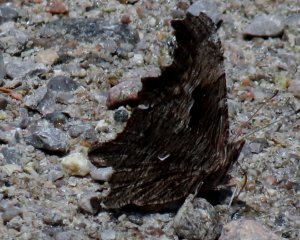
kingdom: Animalia
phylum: Arthropoda
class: Insecta
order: Lepidoptera
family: Nymphalidae
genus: Polygonia
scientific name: Polygonia progne
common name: Gray Comma
